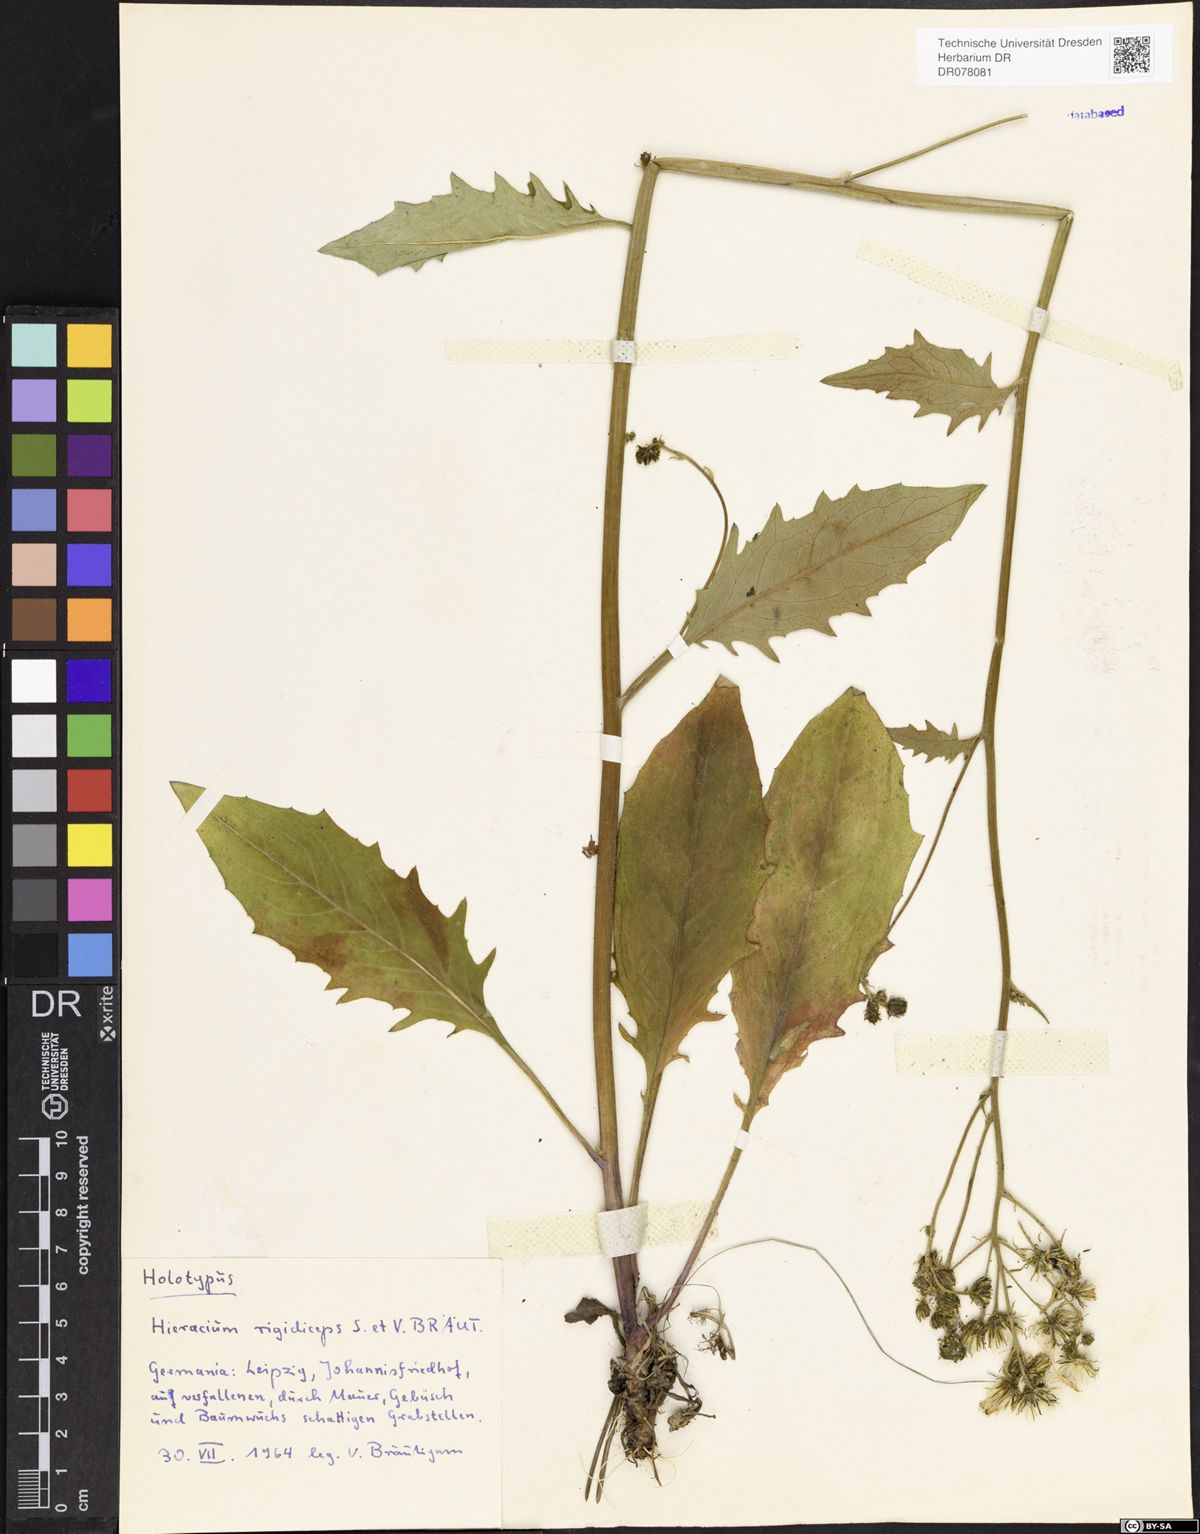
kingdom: Plantae
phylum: Tracheophyta
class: Magnoliopsida
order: Asterales
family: Asteraceae
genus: Hieracium
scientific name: Hieracium maculatum
